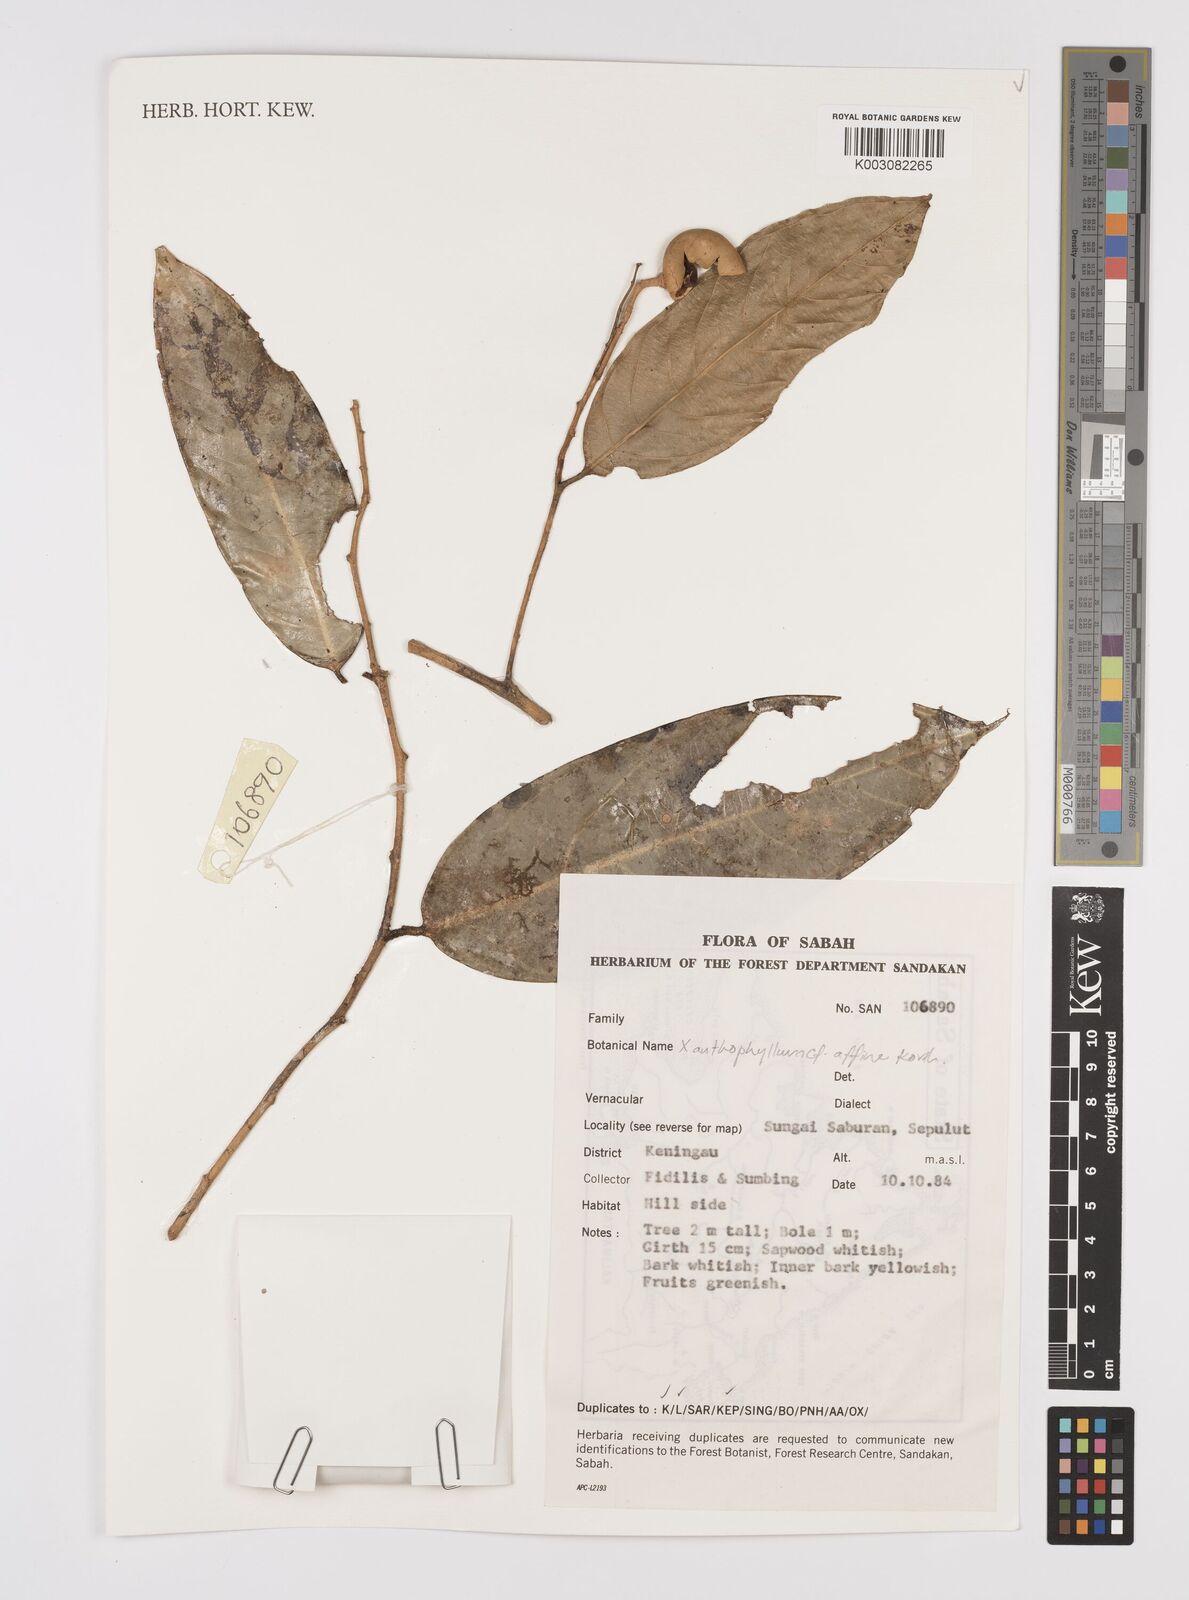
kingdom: Plantae
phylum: Tracheophyta
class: Magnoliopsida
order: Fabales
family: Polygalaceae
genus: Xanthophyllum
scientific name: Xanthophyllum flavescens
